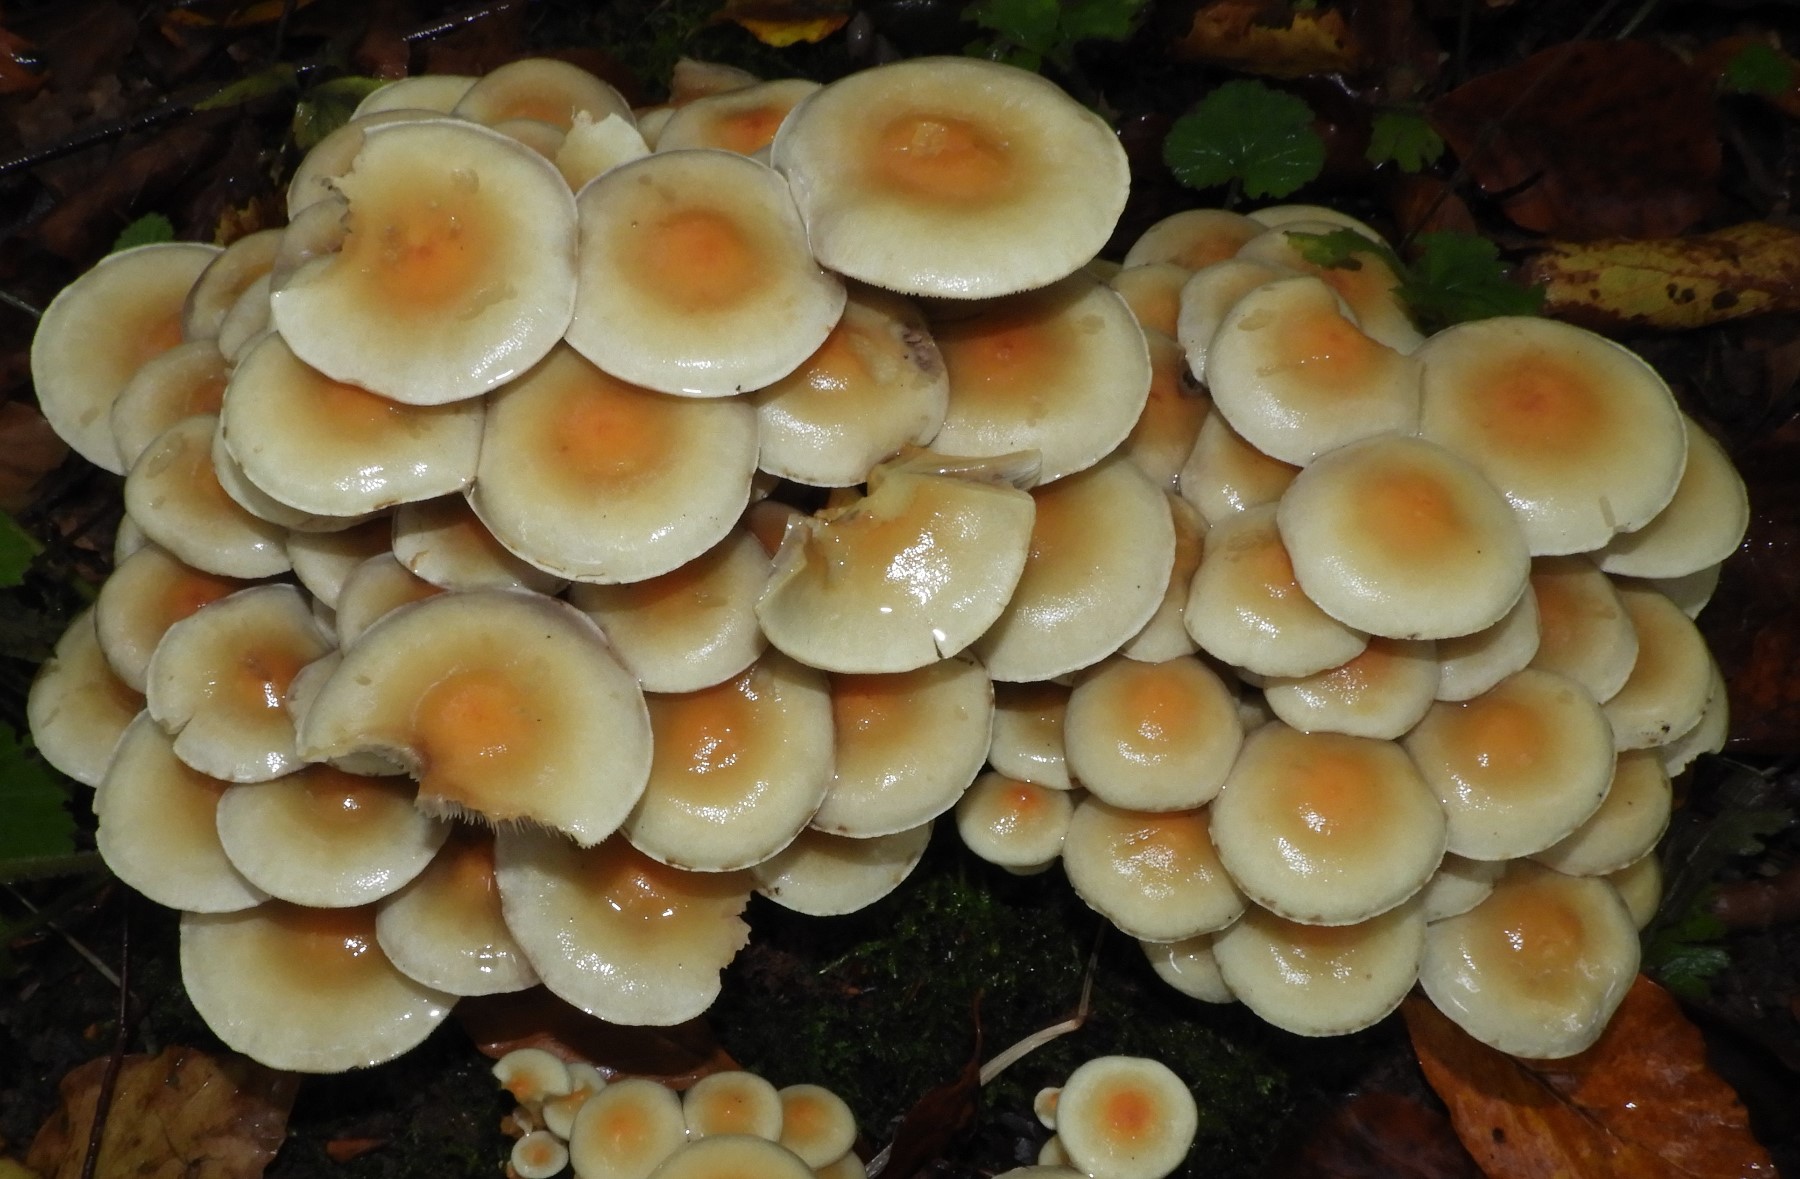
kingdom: Fungi
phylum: Basidiomycota
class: Agaricomycetes
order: Agaricales
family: Strophariaceae
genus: Hypholoma
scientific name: Hypholoma fasciculare
